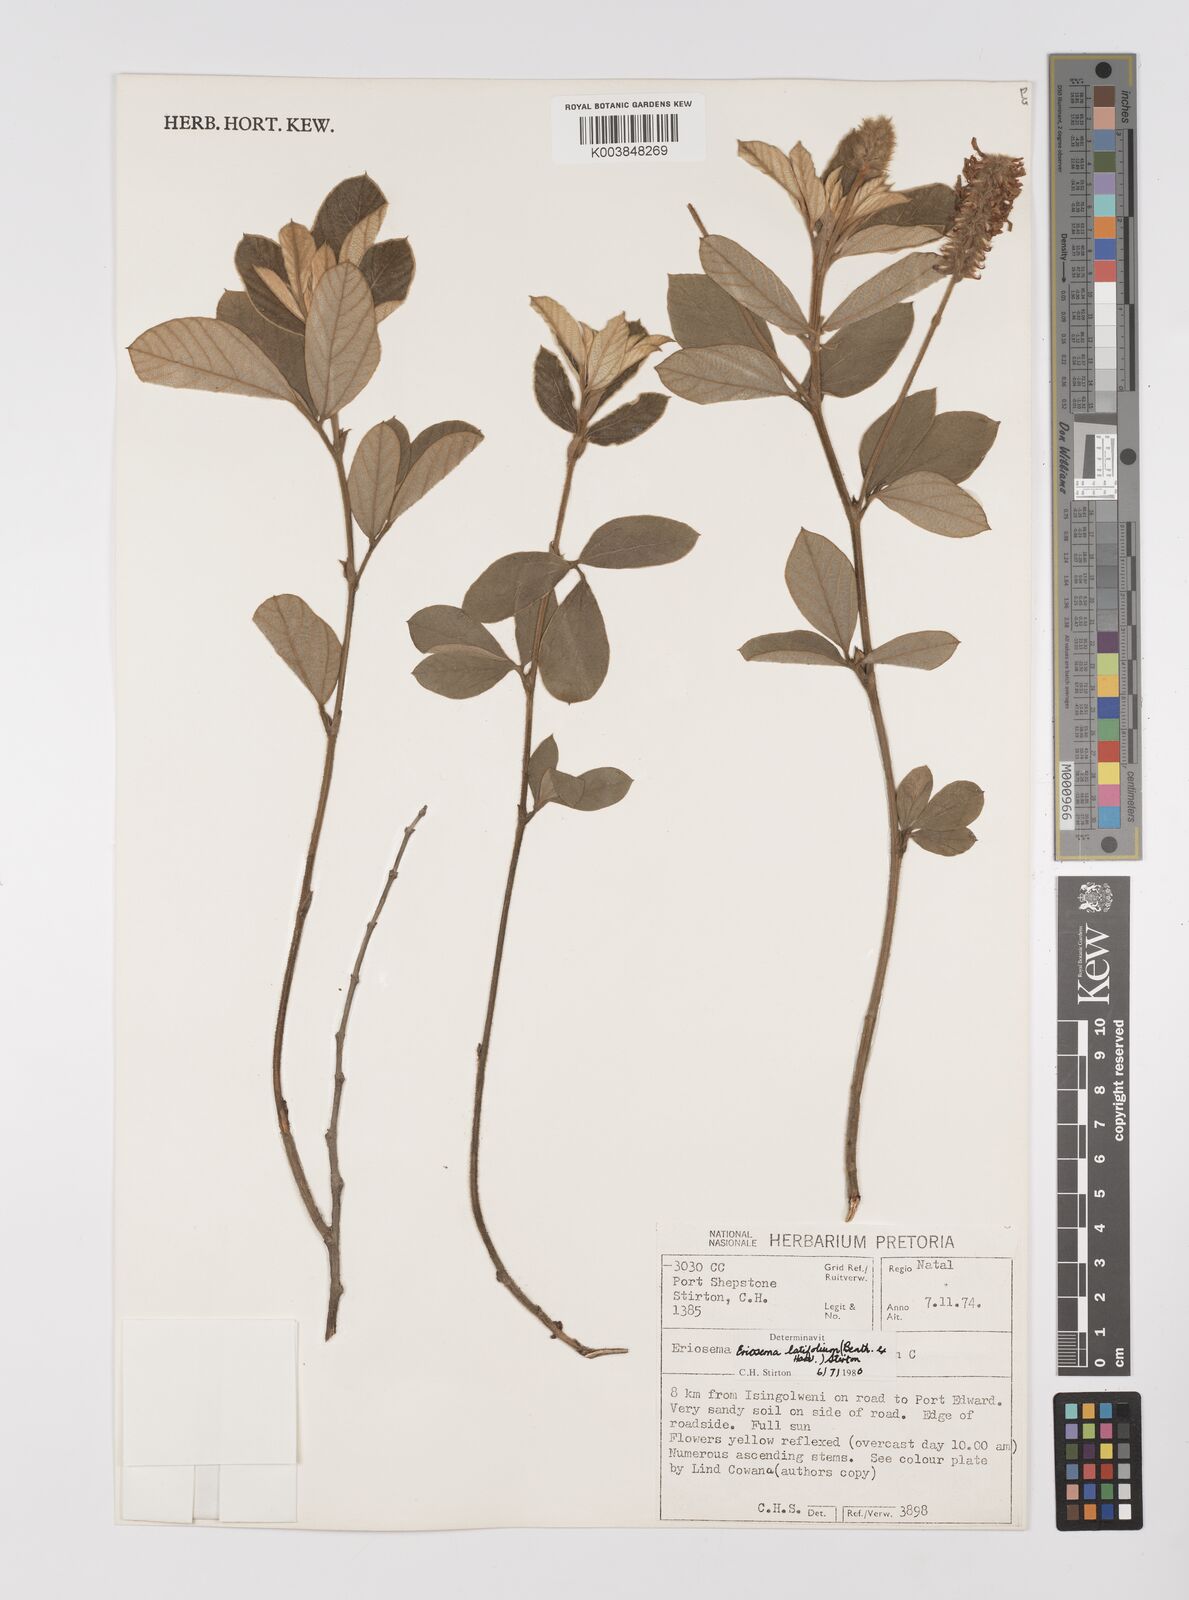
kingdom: Plantae
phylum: Tracheophyta
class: Magnoliopsida
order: Fabales
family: Fabaceae
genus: Eriosema
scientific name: Eriosema latifolium
